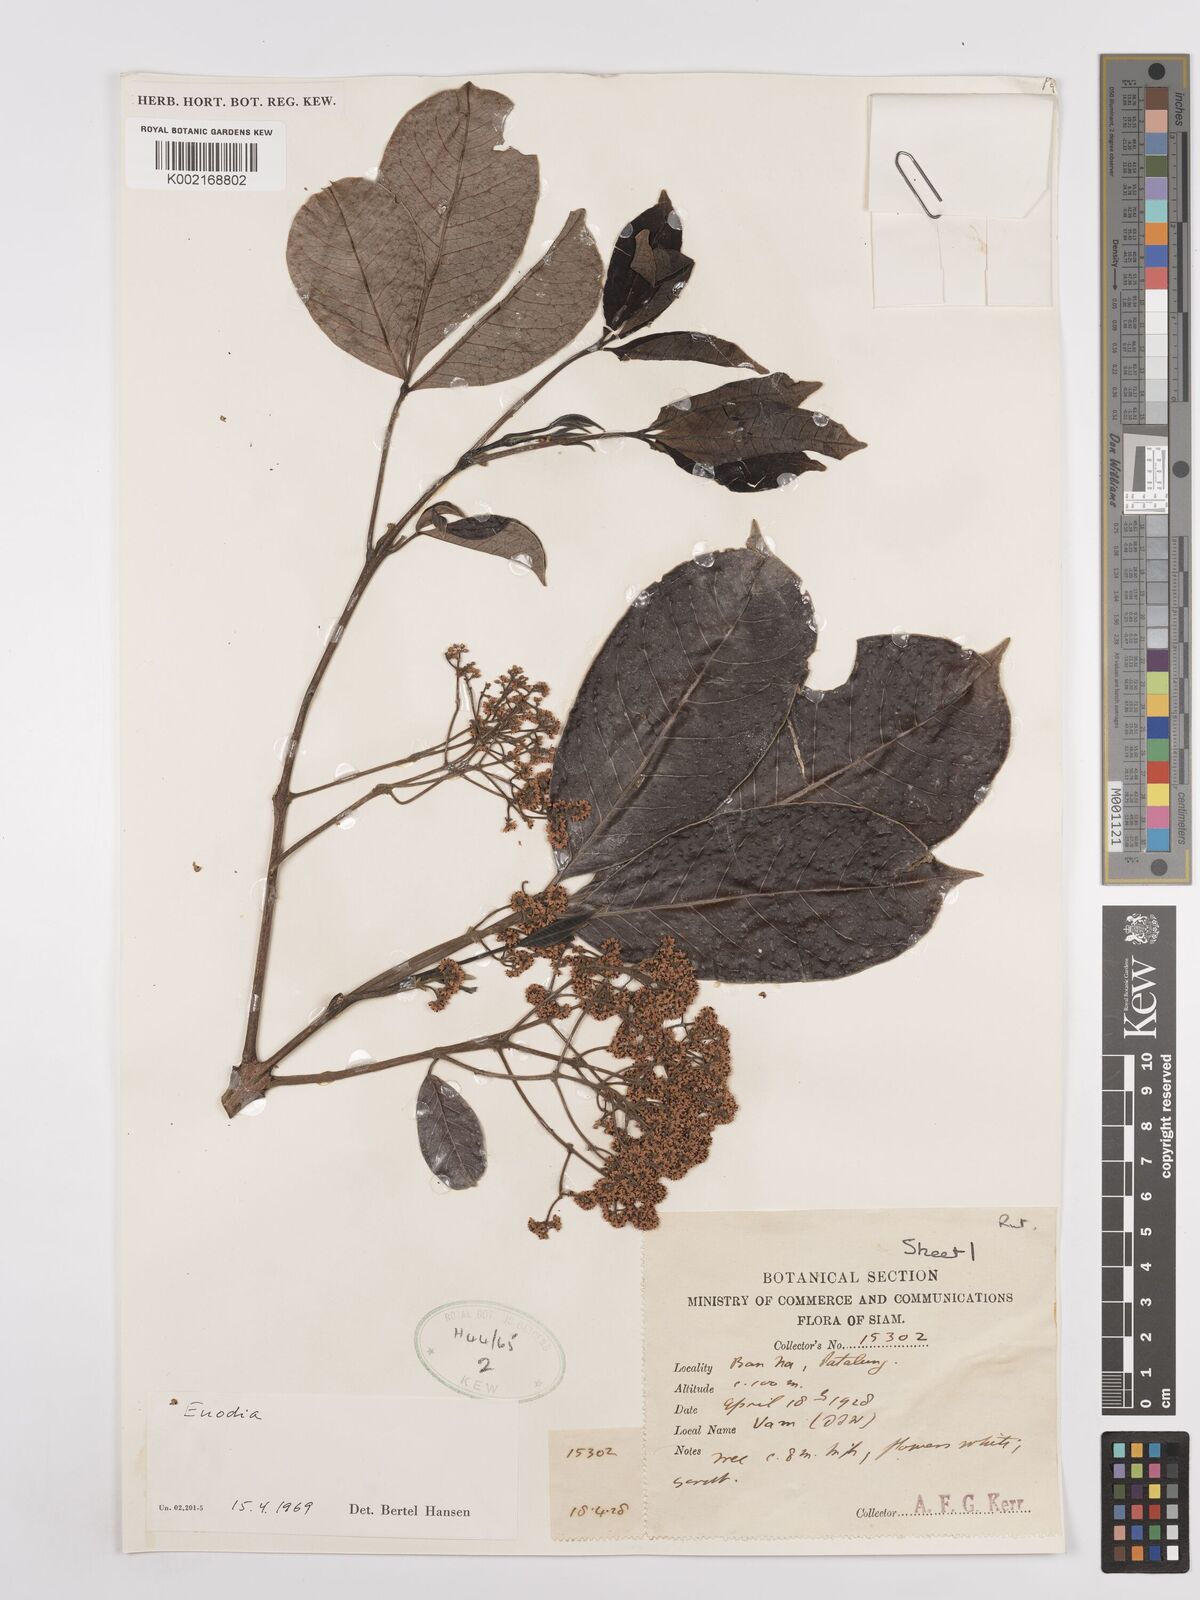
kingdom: Plantae
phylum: Tracheophyta
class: Magnoliopsida
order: Sapindales
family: Rutaceae
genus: Euodia
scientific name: Euodia
